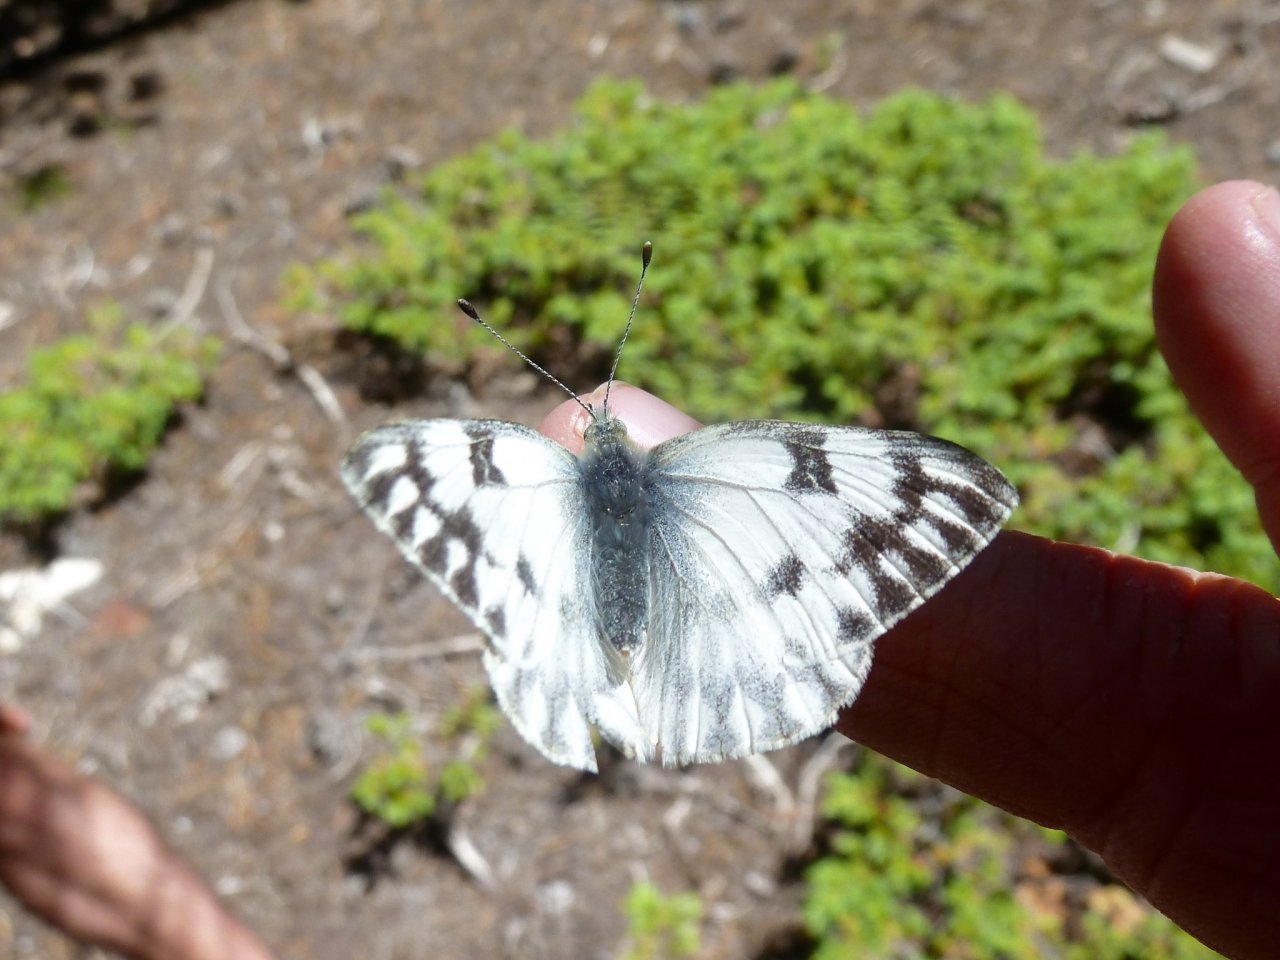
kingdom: Animalia
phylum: Arthropoda
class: Insecta
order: Lepidoptera
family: Pieridae
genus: Pontia
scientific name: Pontia occidentalis
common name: Western White
